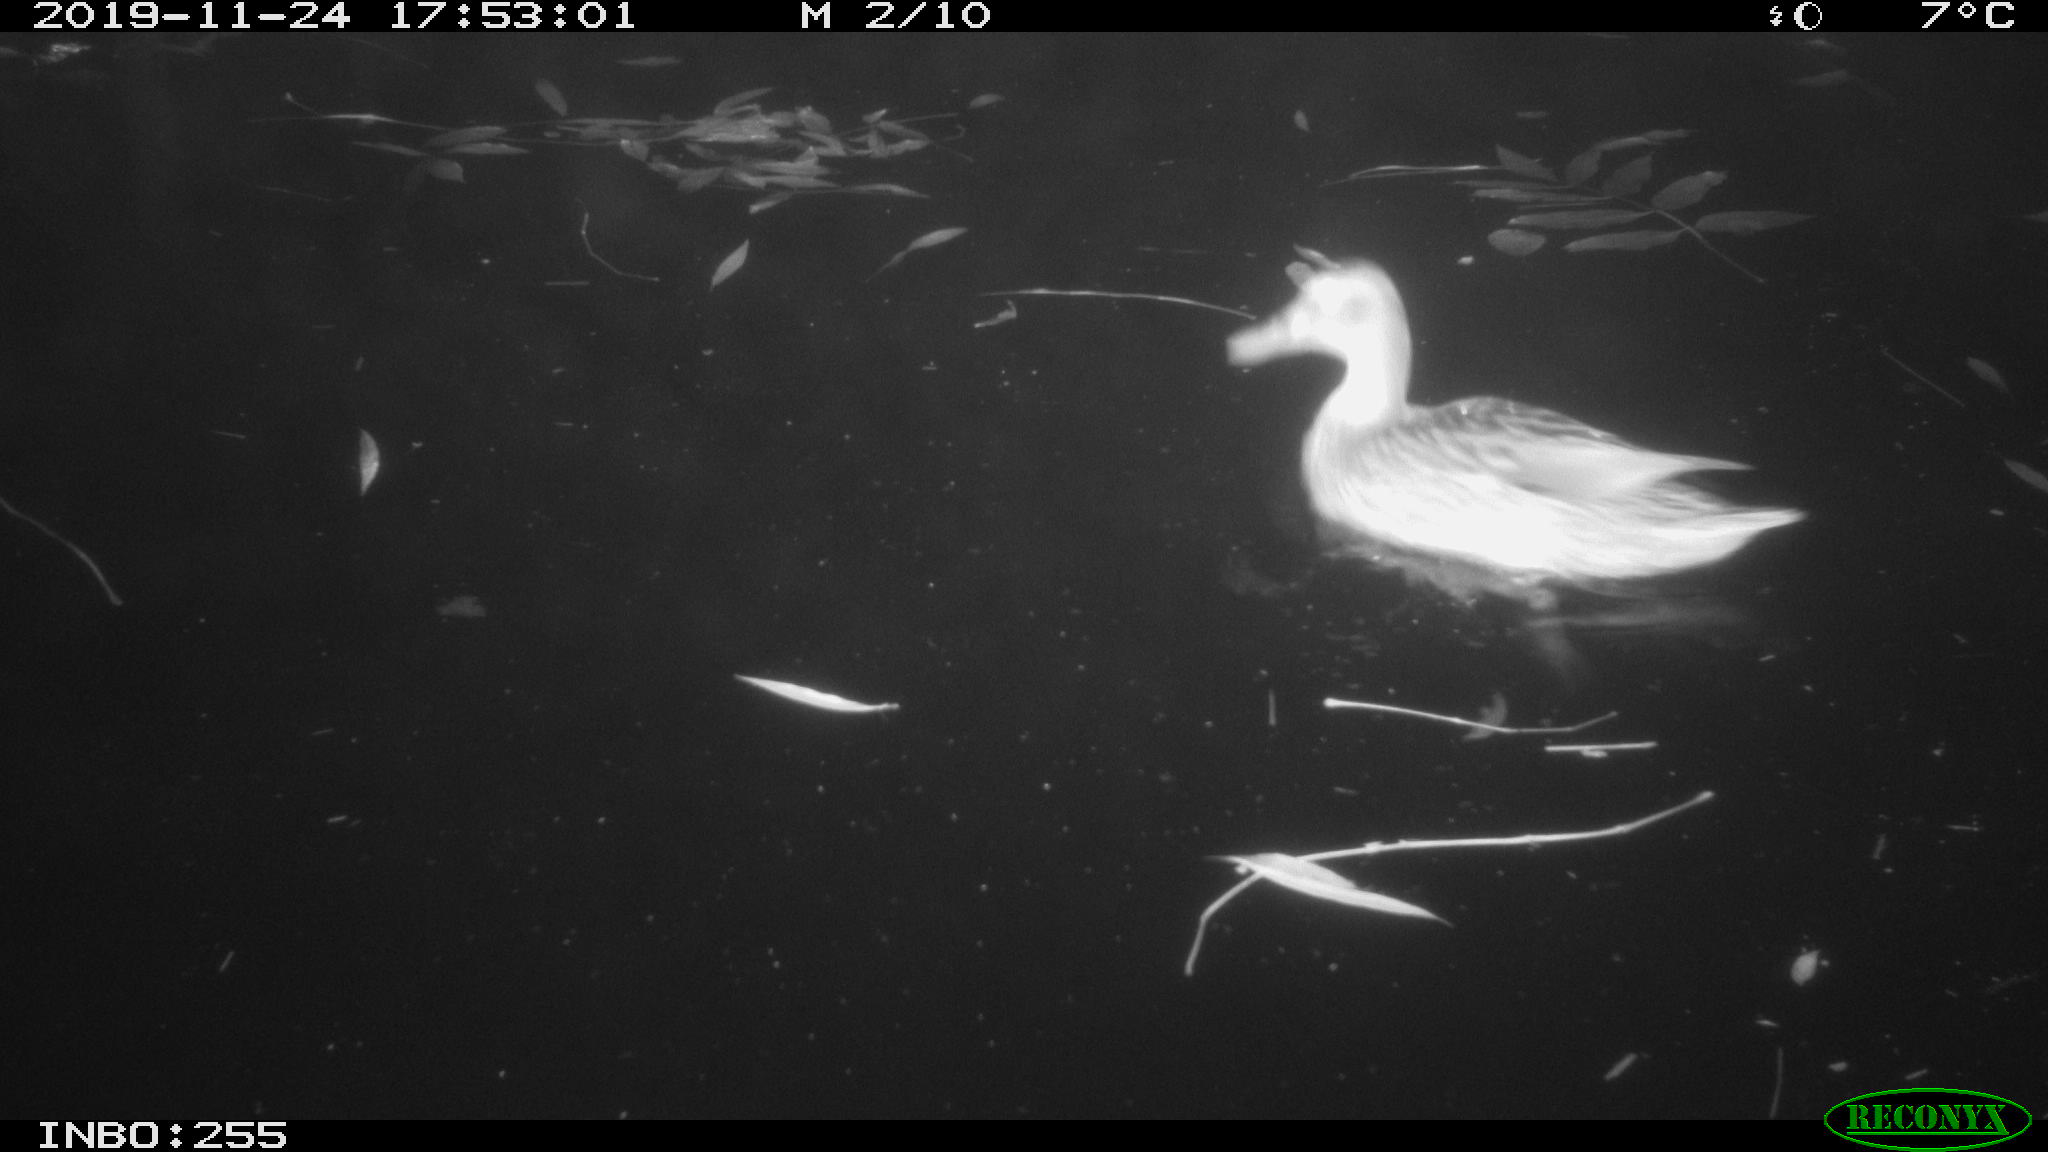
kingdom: Animalia
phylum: Chordata
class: Aves
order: Anseriformes
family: Anatidae
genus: Anas
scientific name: Anas platyrhynchos
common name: Mallard
